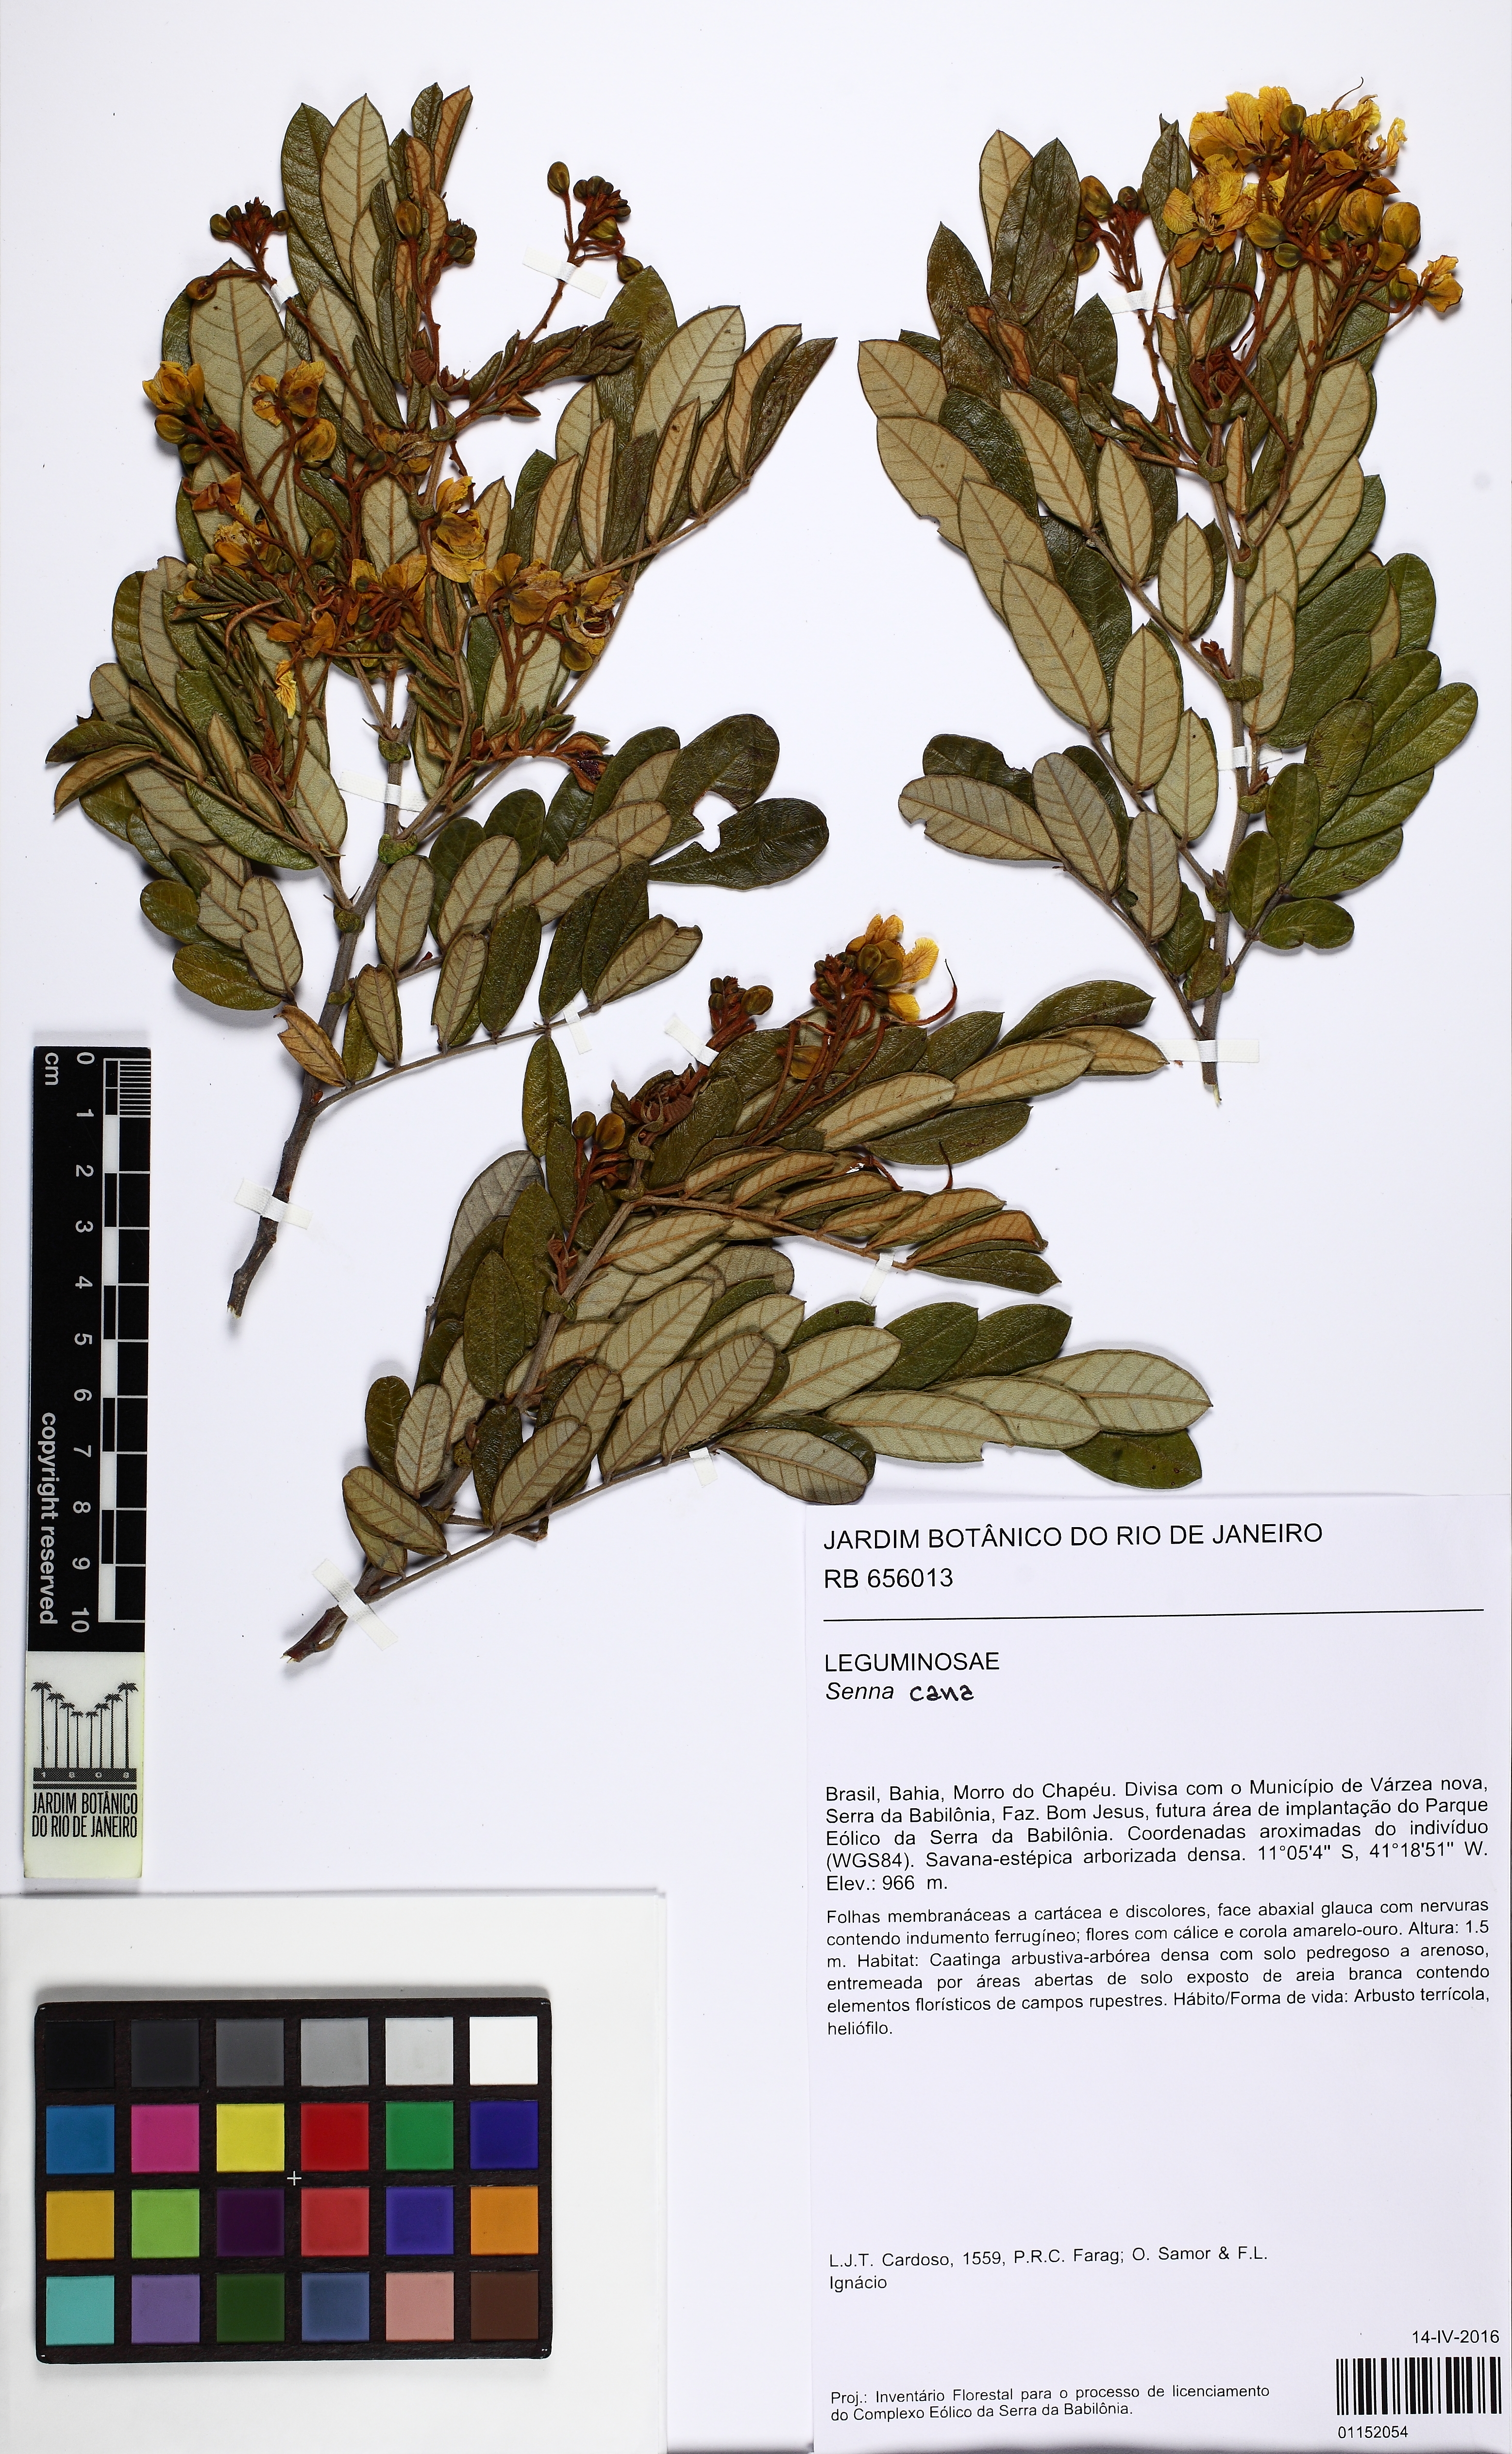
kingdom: Plantae
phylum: Tracheophyta
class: Magnoliopsida
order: Fabales
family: Fabaceae
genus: Senna
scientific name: Senna cana
